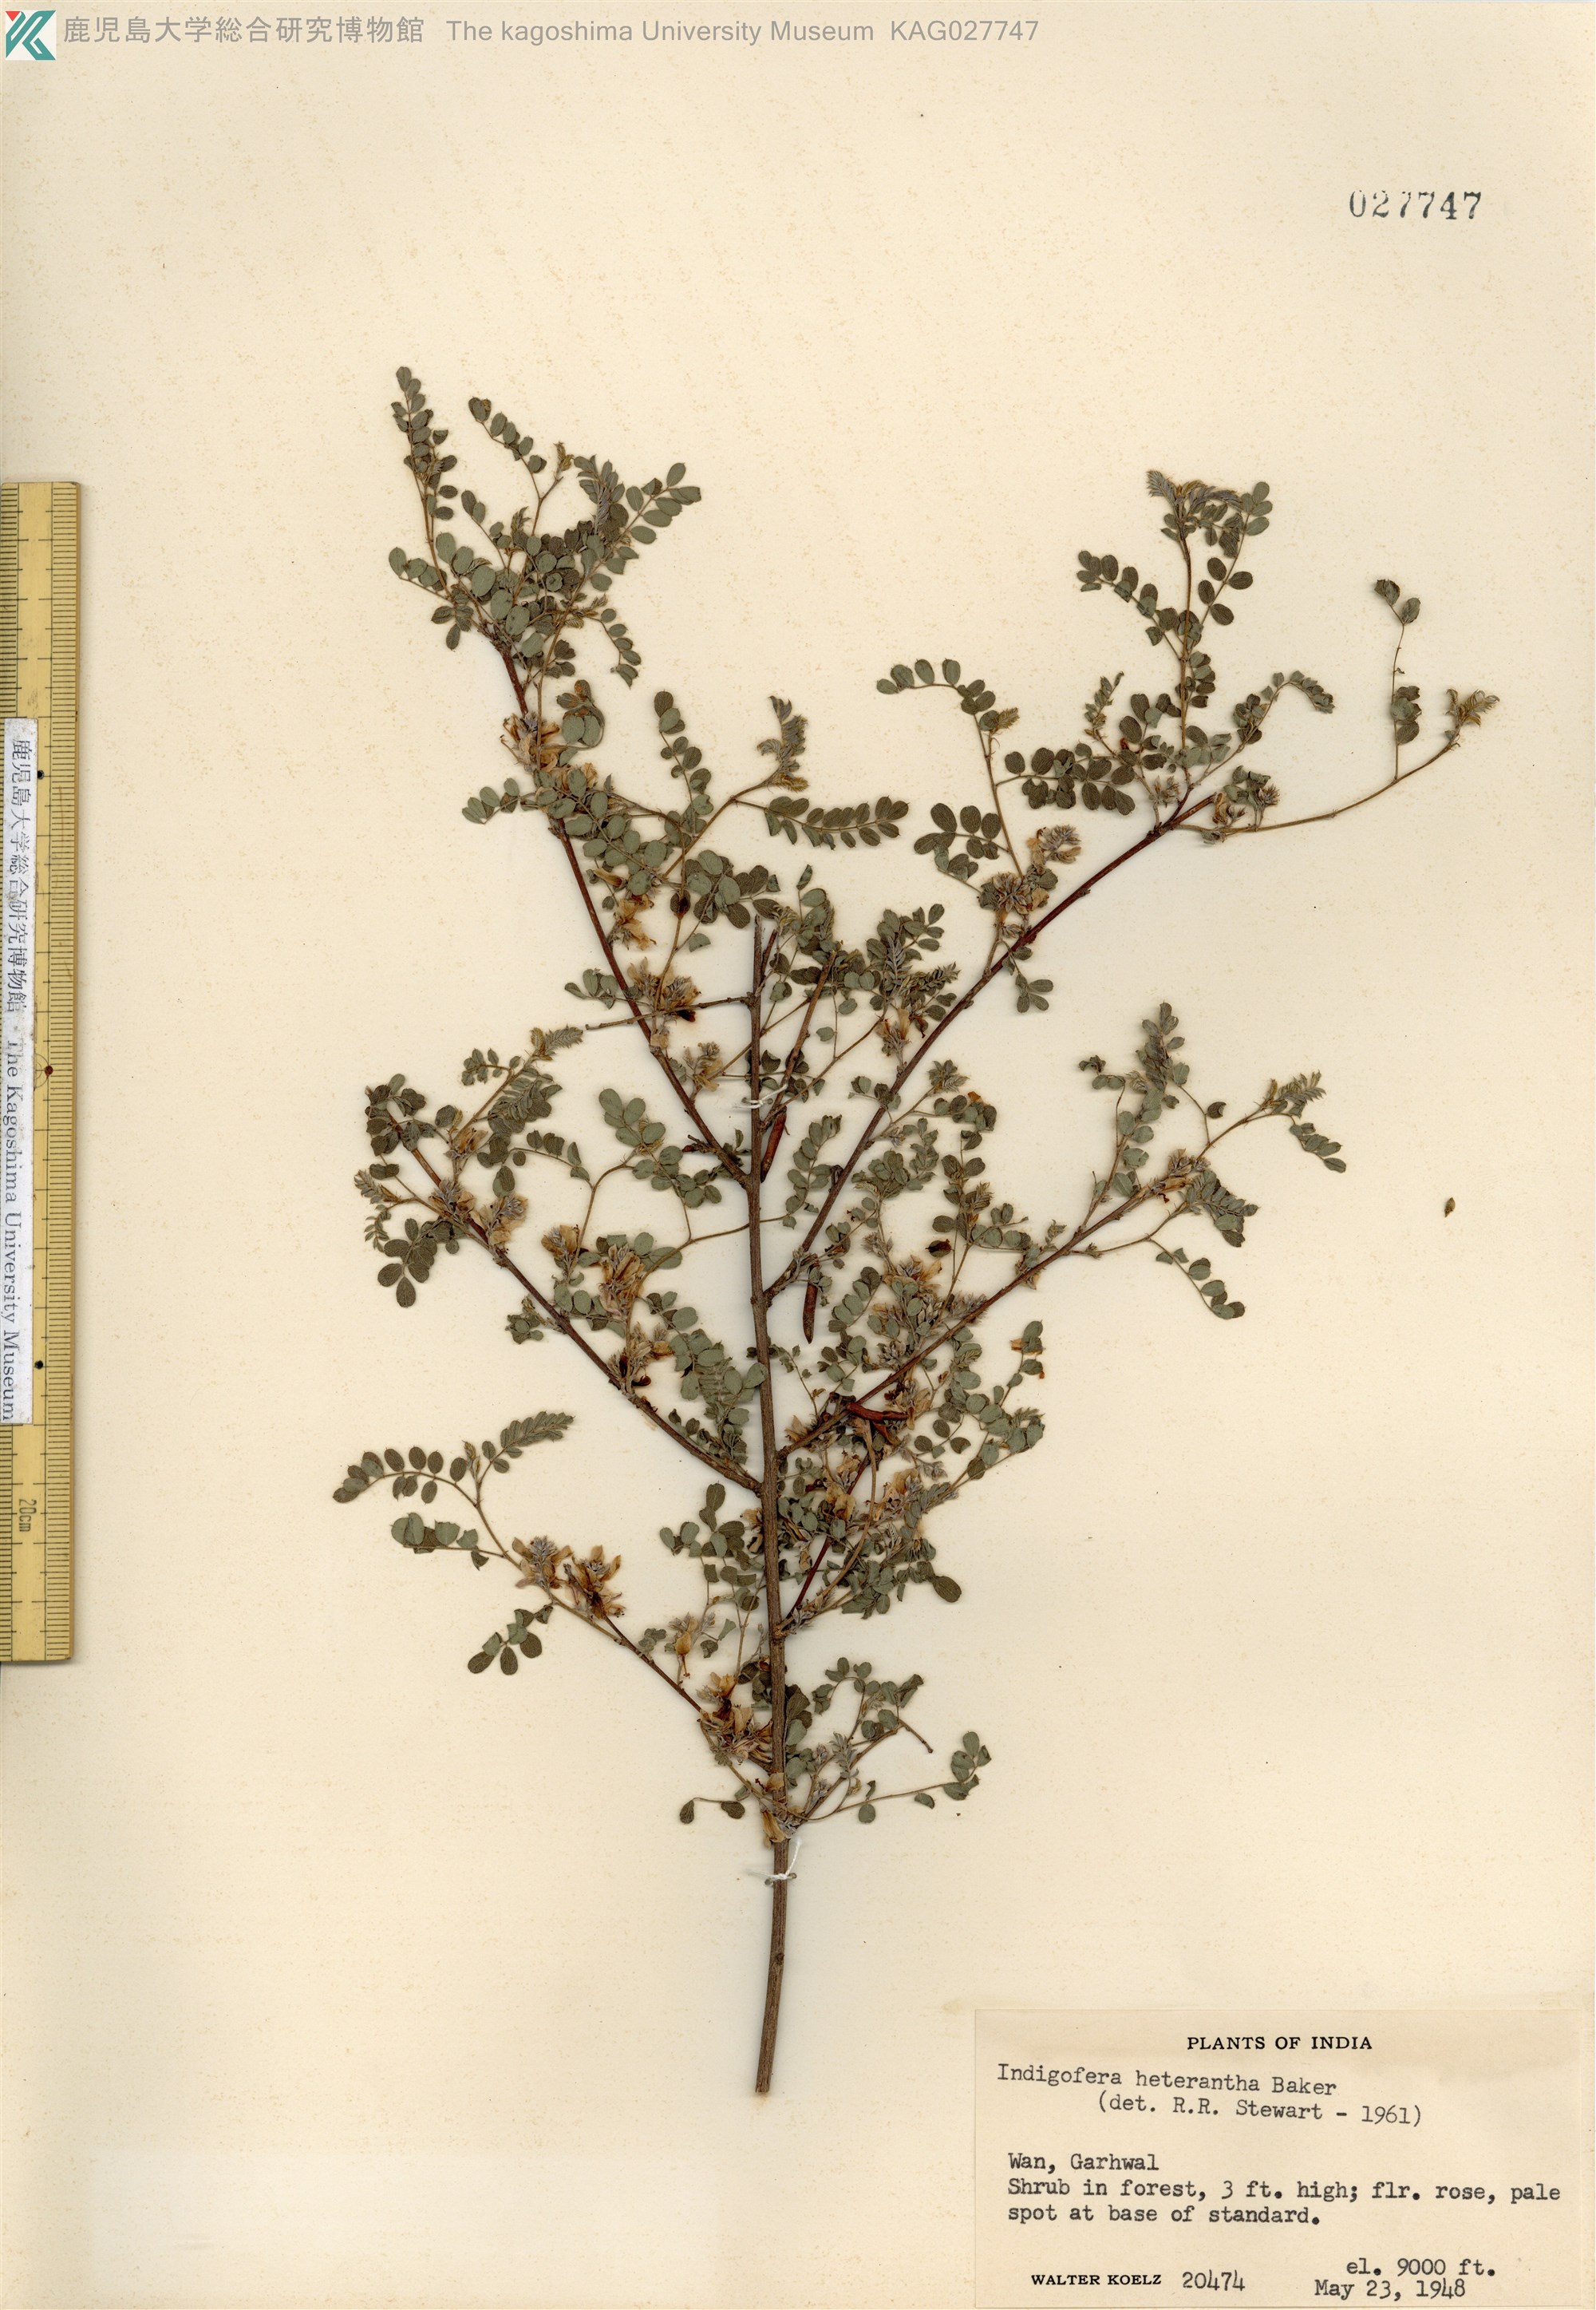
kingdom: Plantae
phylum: Tracheophyta
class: Magnoliopsida
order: Fabales
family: Fabaceae
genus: Indigofera
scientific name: Indigofera heterantha
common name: Himalayan indigo
